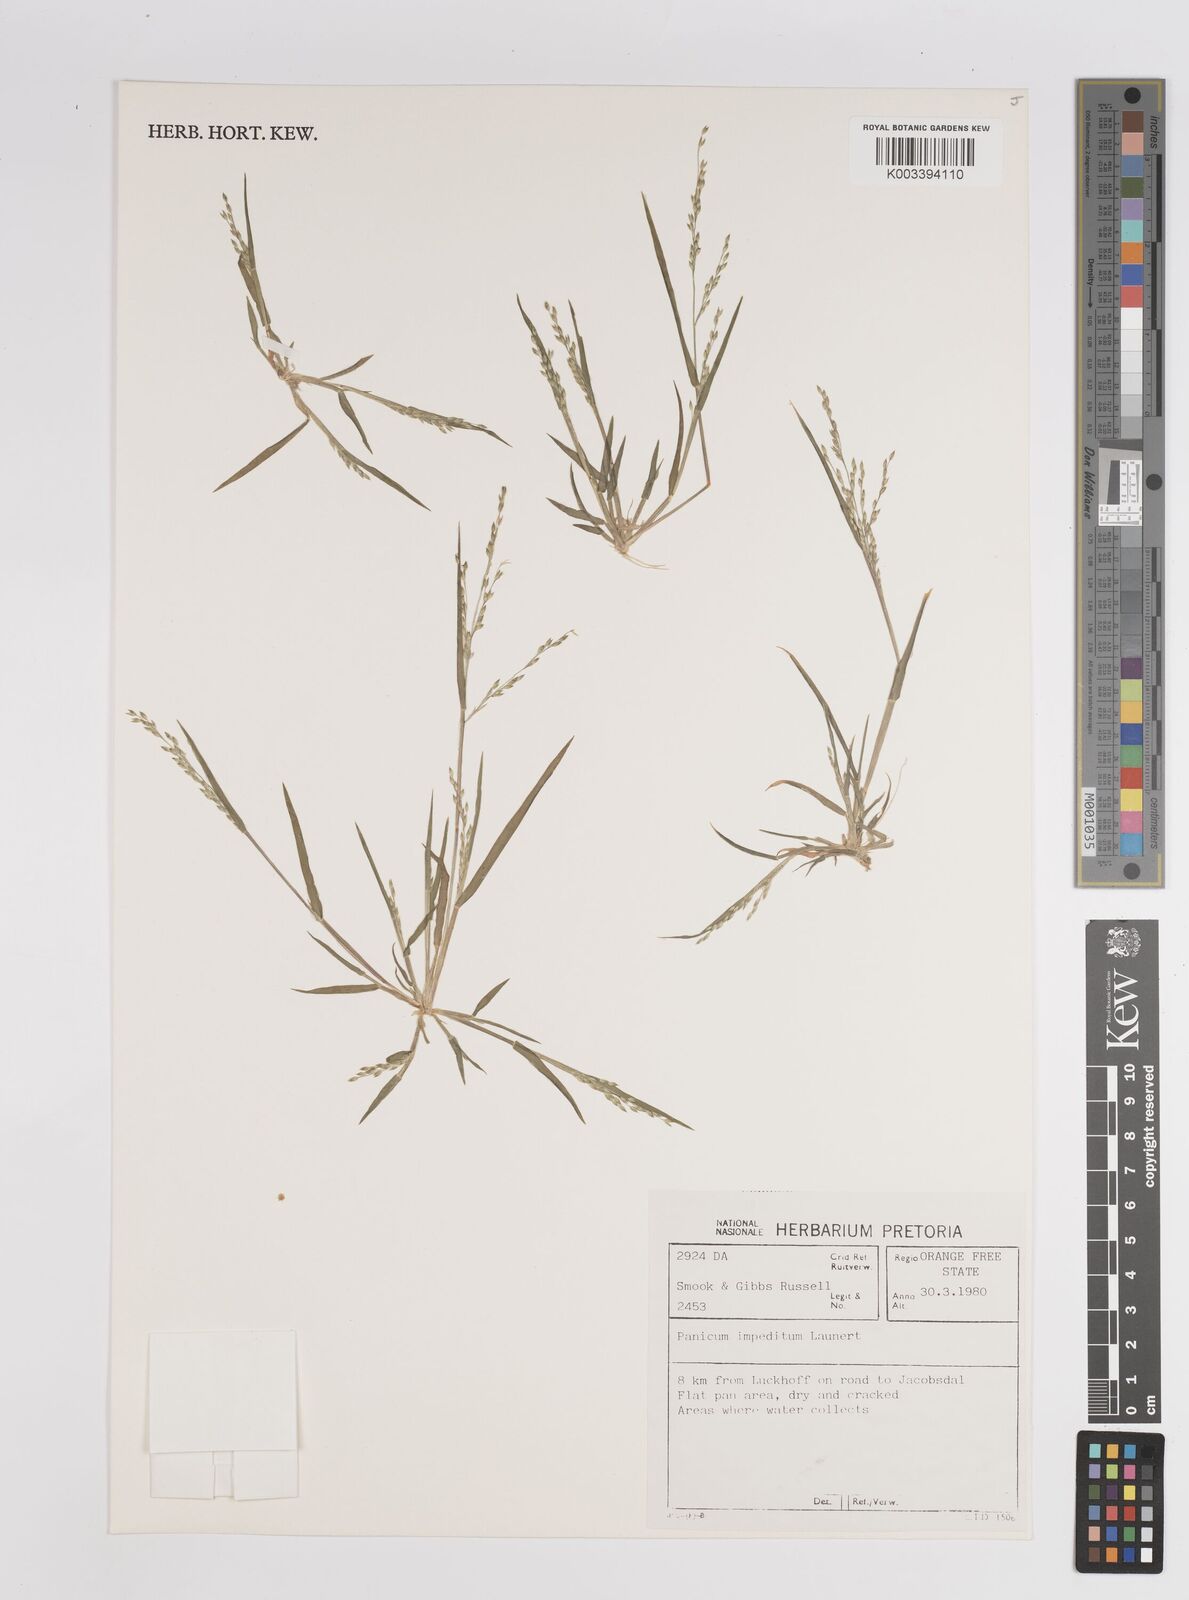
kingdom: Plantae
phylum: Tracheophyta
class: Liliopsida
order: Poales
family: Poaceae
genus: Panicum
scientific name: Panicum impeditum
